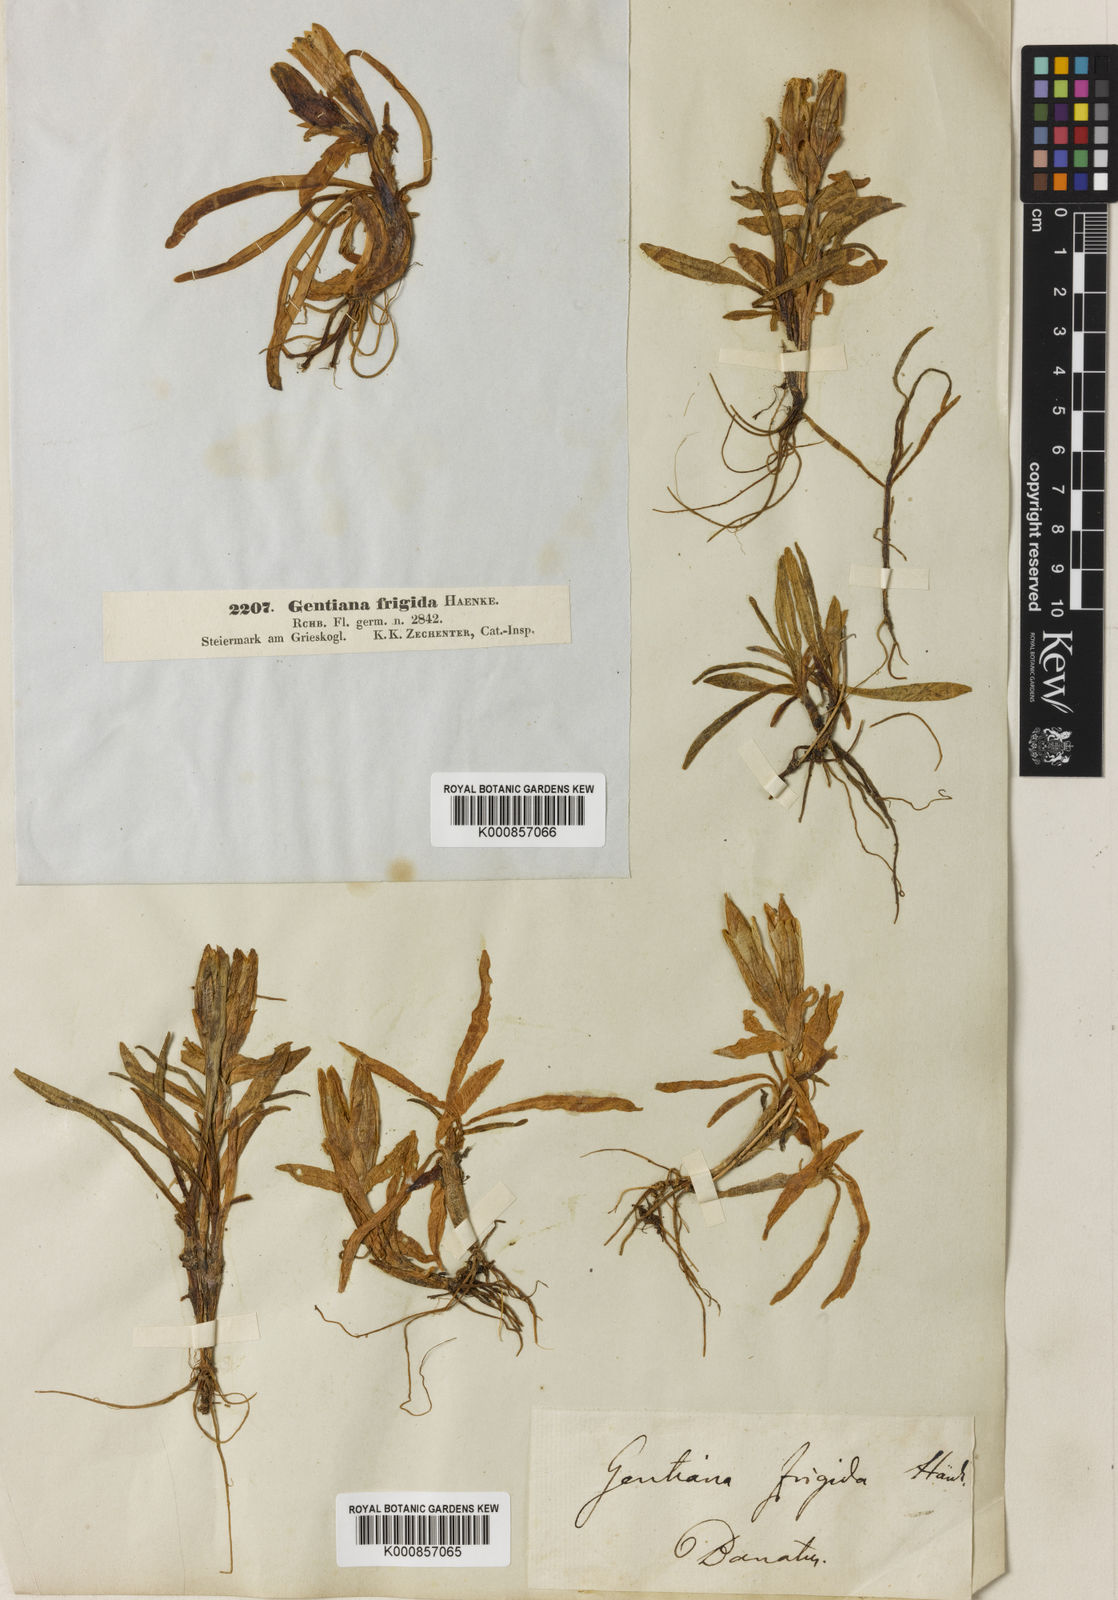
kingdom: Plantae
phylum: Tracheophyta
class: Magnoliopsida
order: Gentianales
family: Gentianaceae
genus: Gentiana
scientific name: Gentiana frigida
